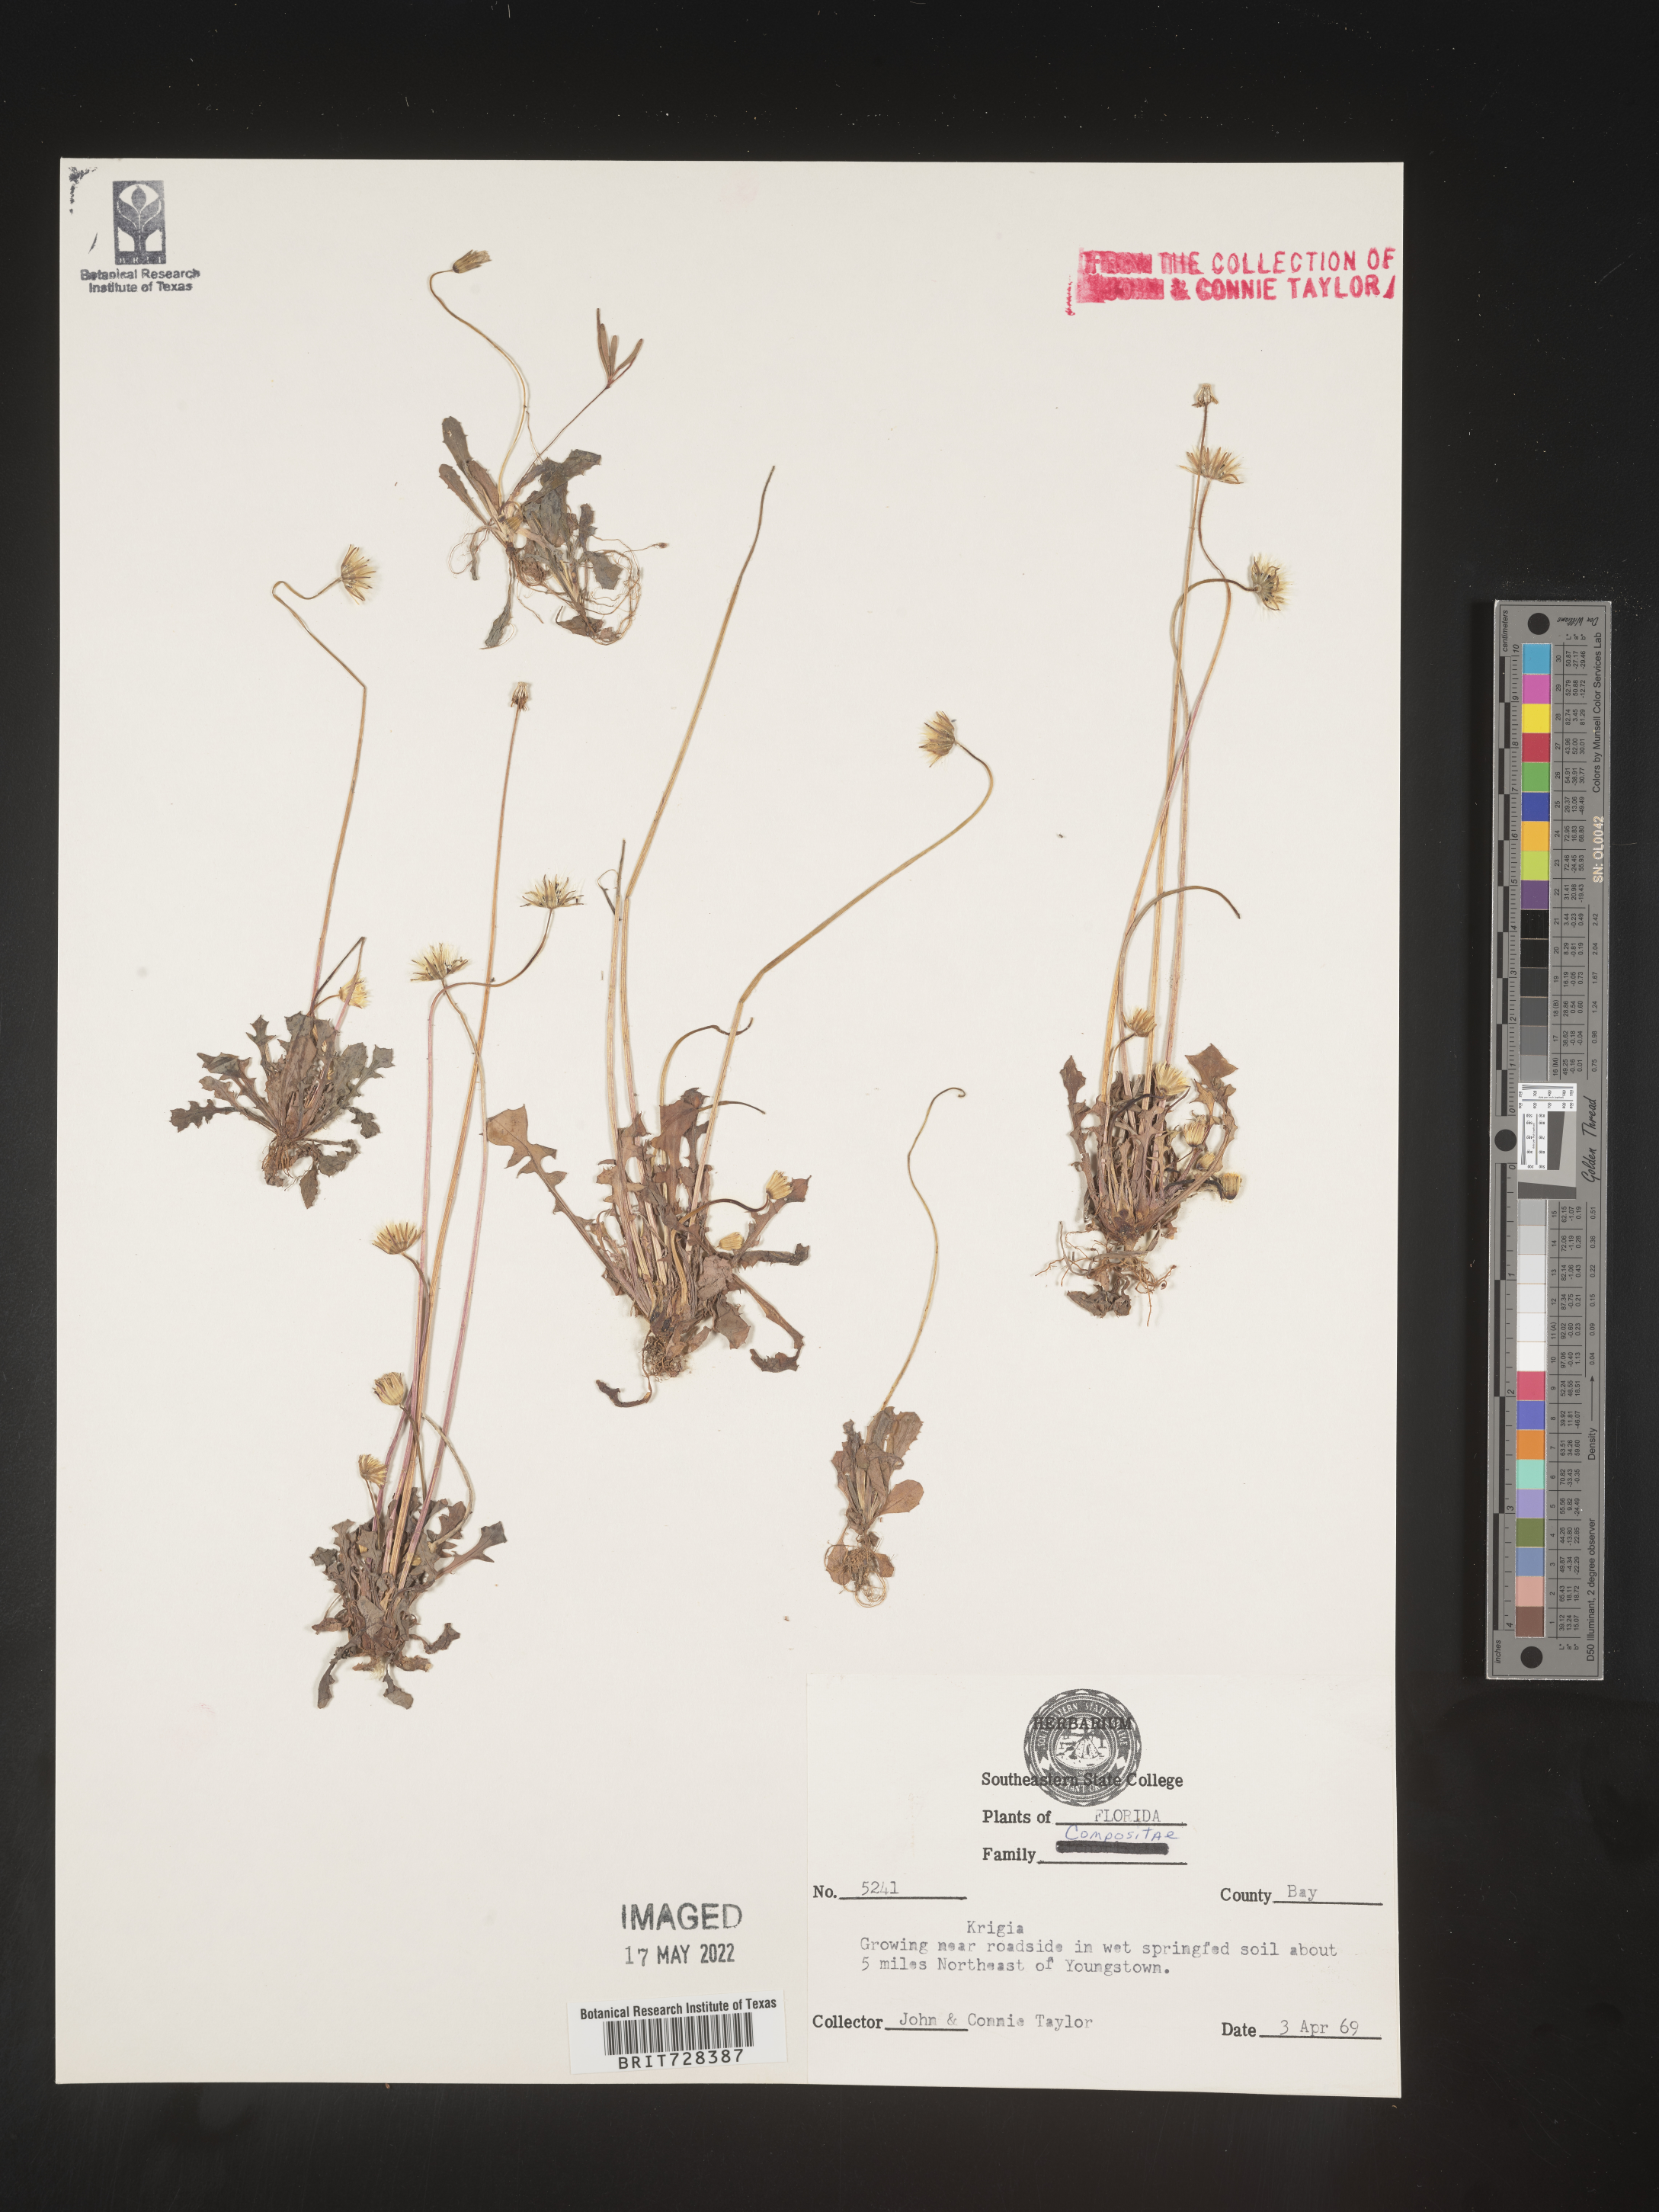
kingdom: Plantae
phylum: Tracheophyta
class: Magnoliopsida
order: Asterales
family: Asteraceae
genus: Krigia
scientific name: Krigia caespitosa
